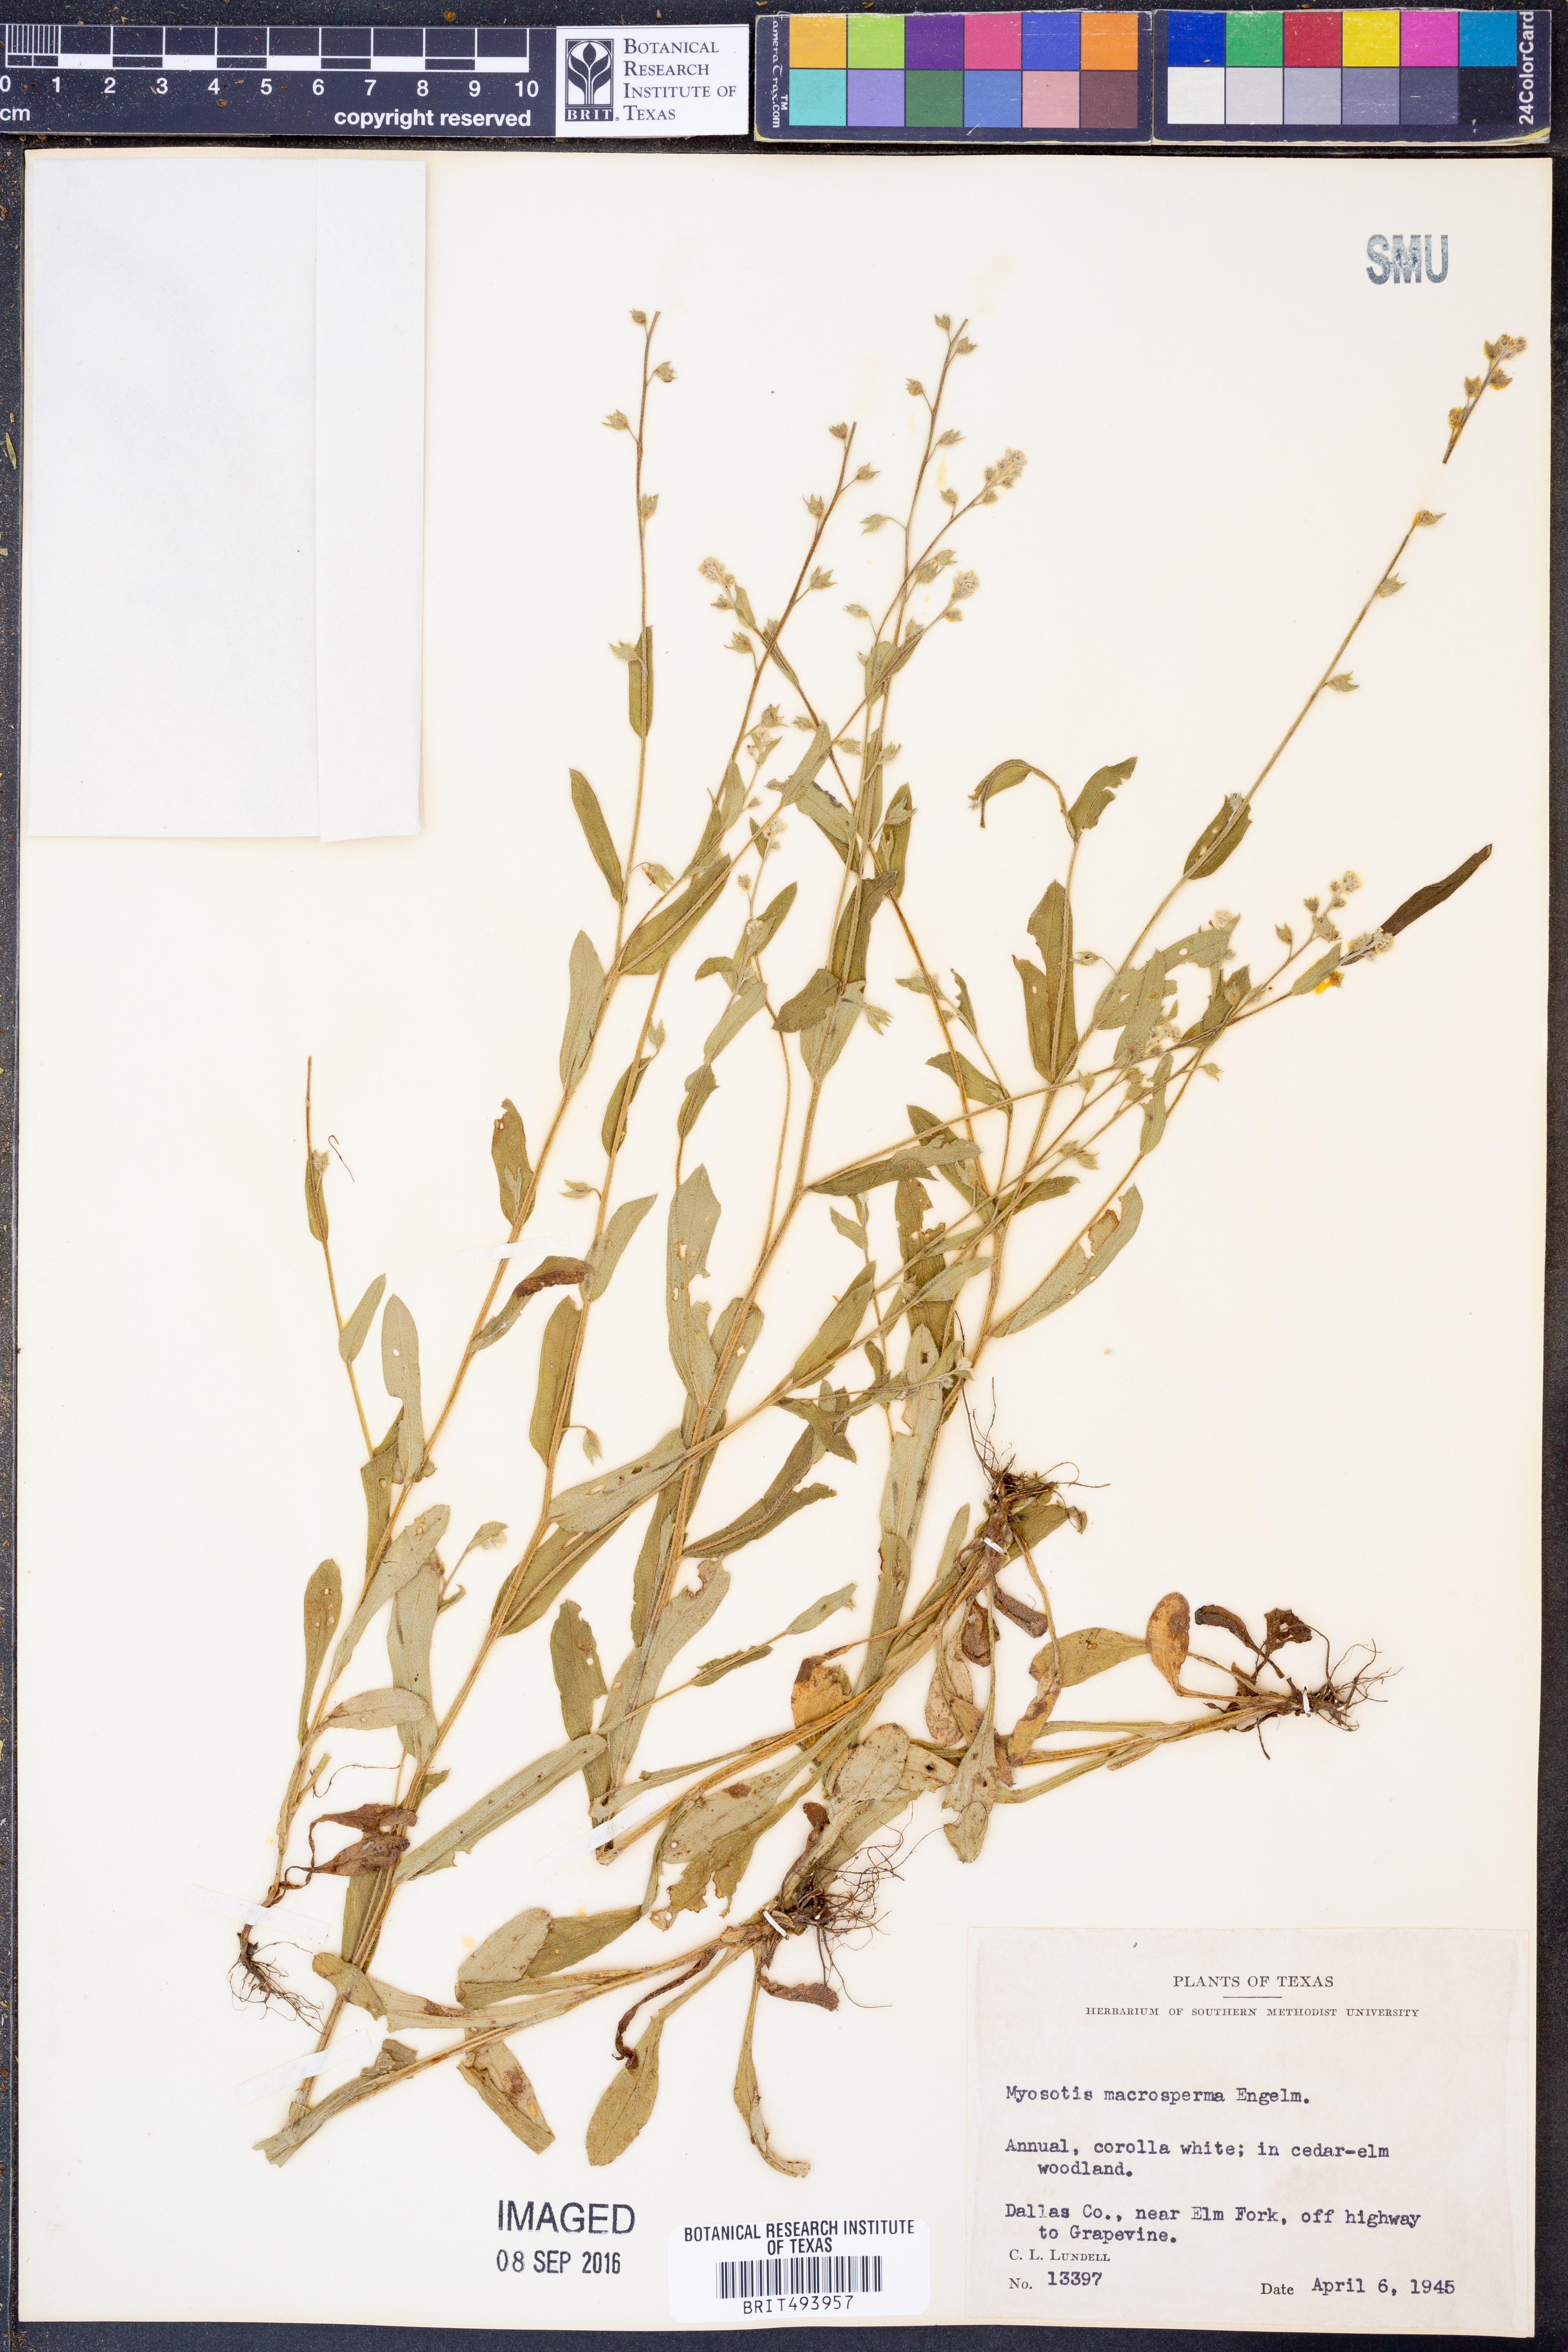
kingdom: Plantae
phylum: Tracheophyta
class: Magnoliopsida
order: Boraginales
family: Boraginaceae
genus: Myosotis
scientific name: Myosotis macrosperma
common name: Large-seed forget-me-not
